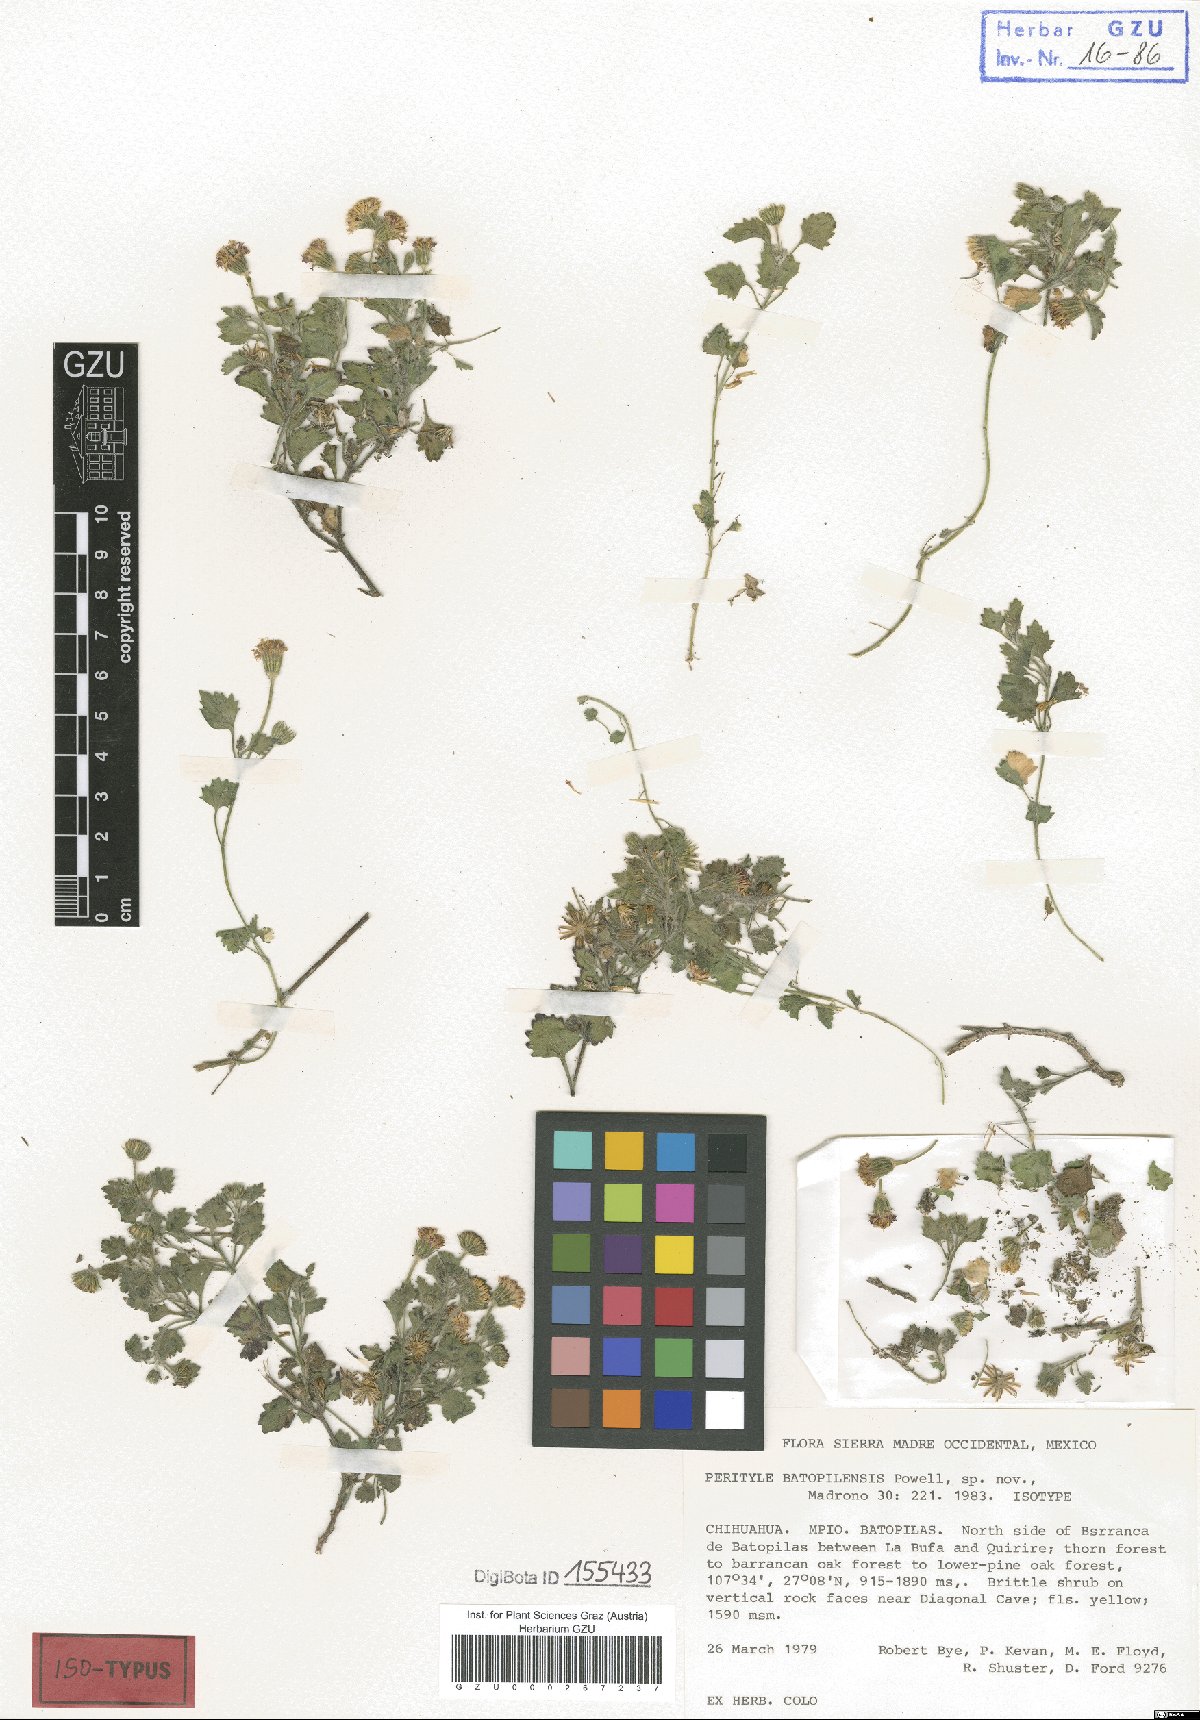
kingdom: Plantae
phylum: Tracheophyta
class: Magnoliopsida
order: Asterales
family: Asteraceae
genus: Laphamia
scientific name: Laphamia batopilensis
